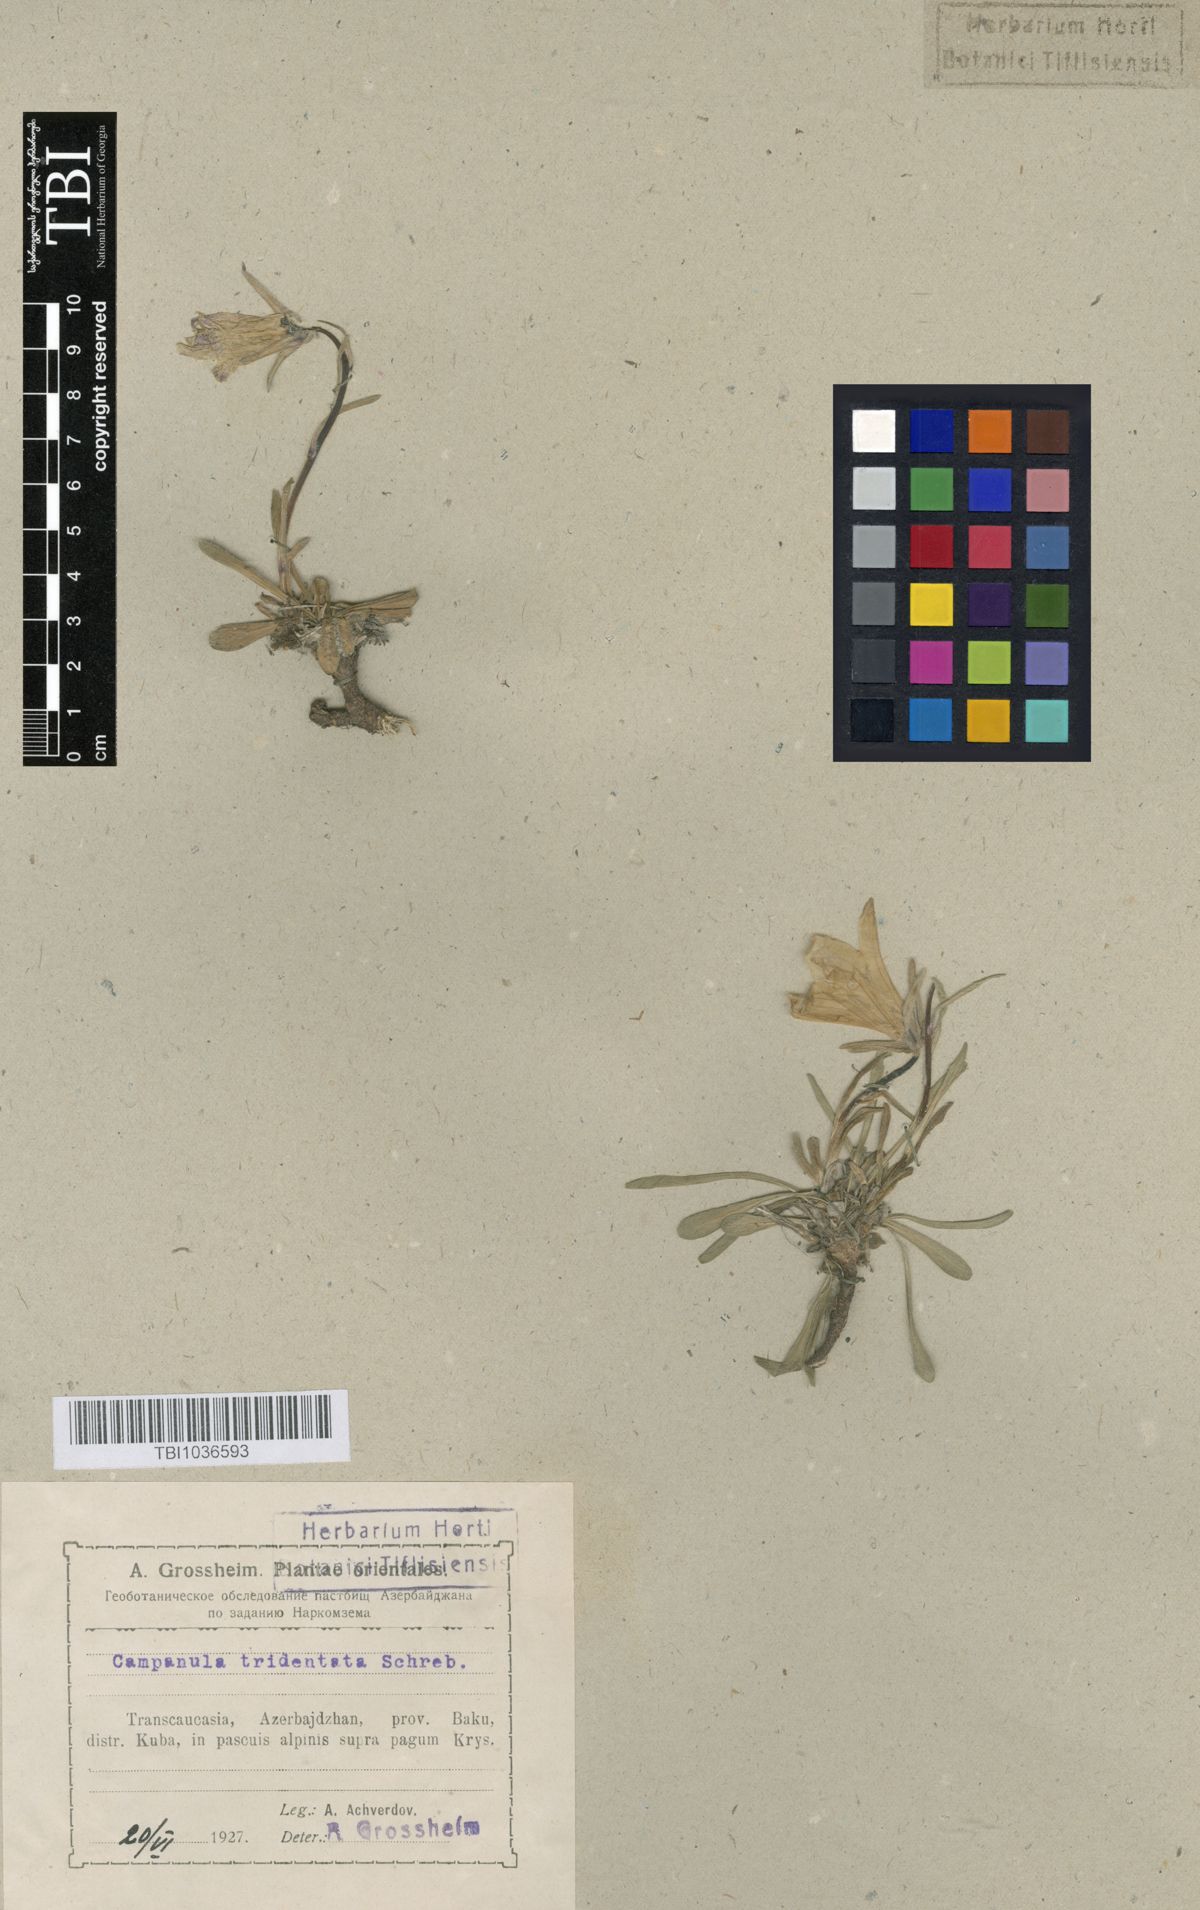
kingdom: Plantae
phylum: Tracheophyta
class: Magnoliopsida
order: Asterales
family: Campanulaceae
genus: Campanula
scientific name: Campanula tridentata
